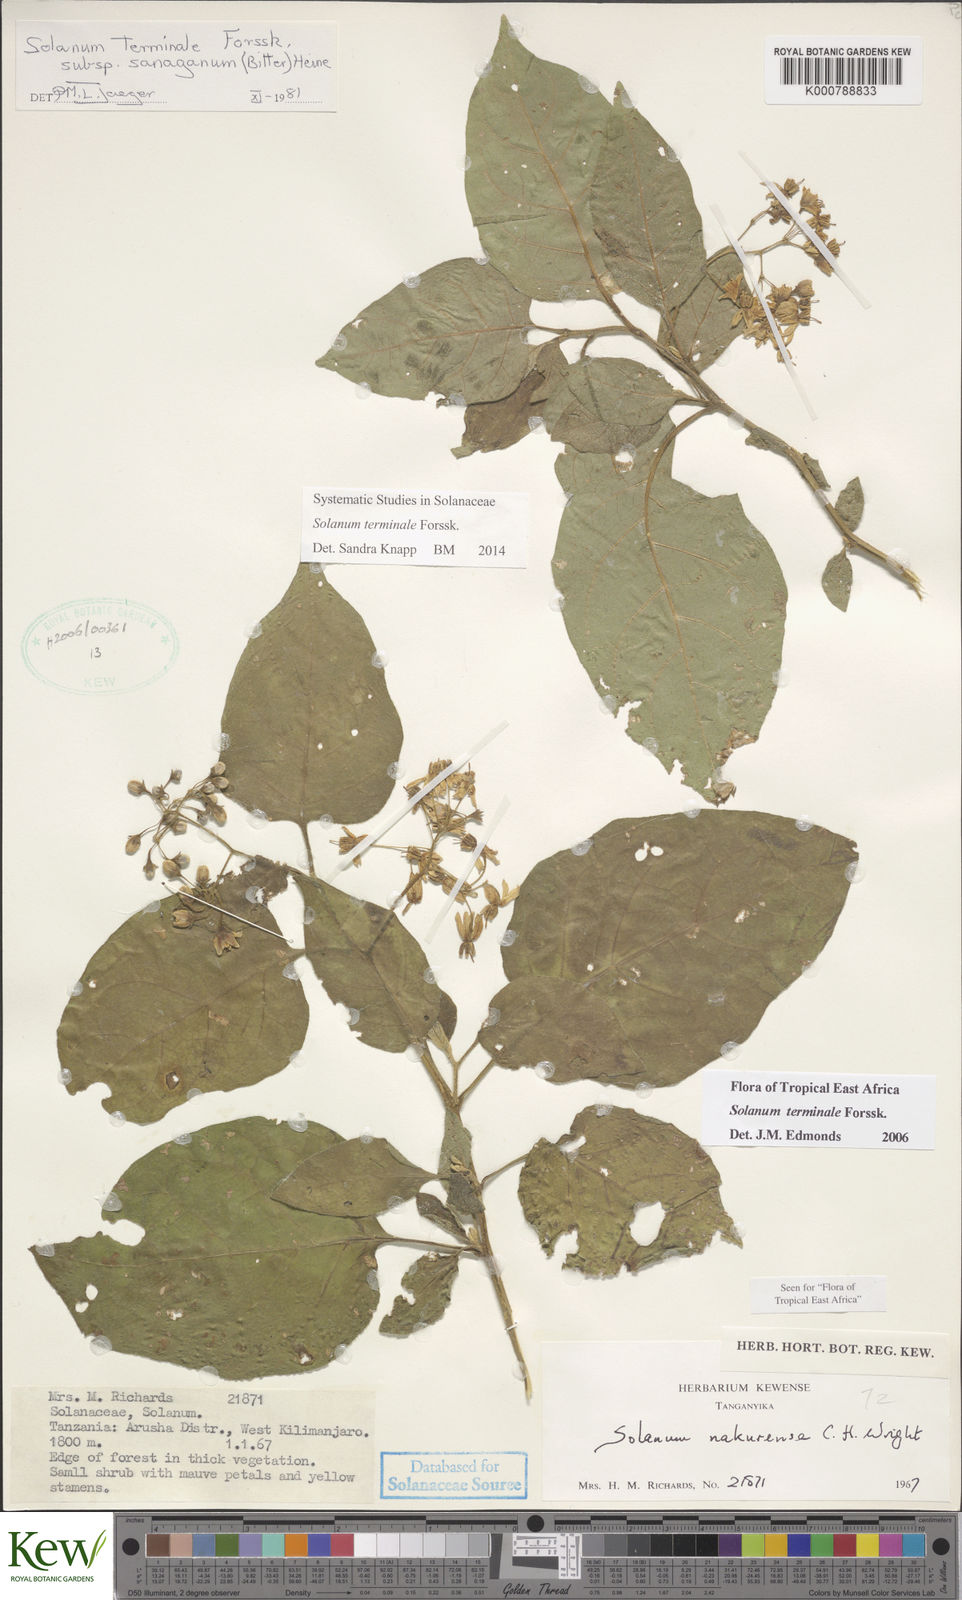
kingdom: Plantae
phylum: Tracheophyta
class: Magnoliopsida
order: Solanales
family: Solanaceae
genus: Solanum
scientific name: Solanum terminale
